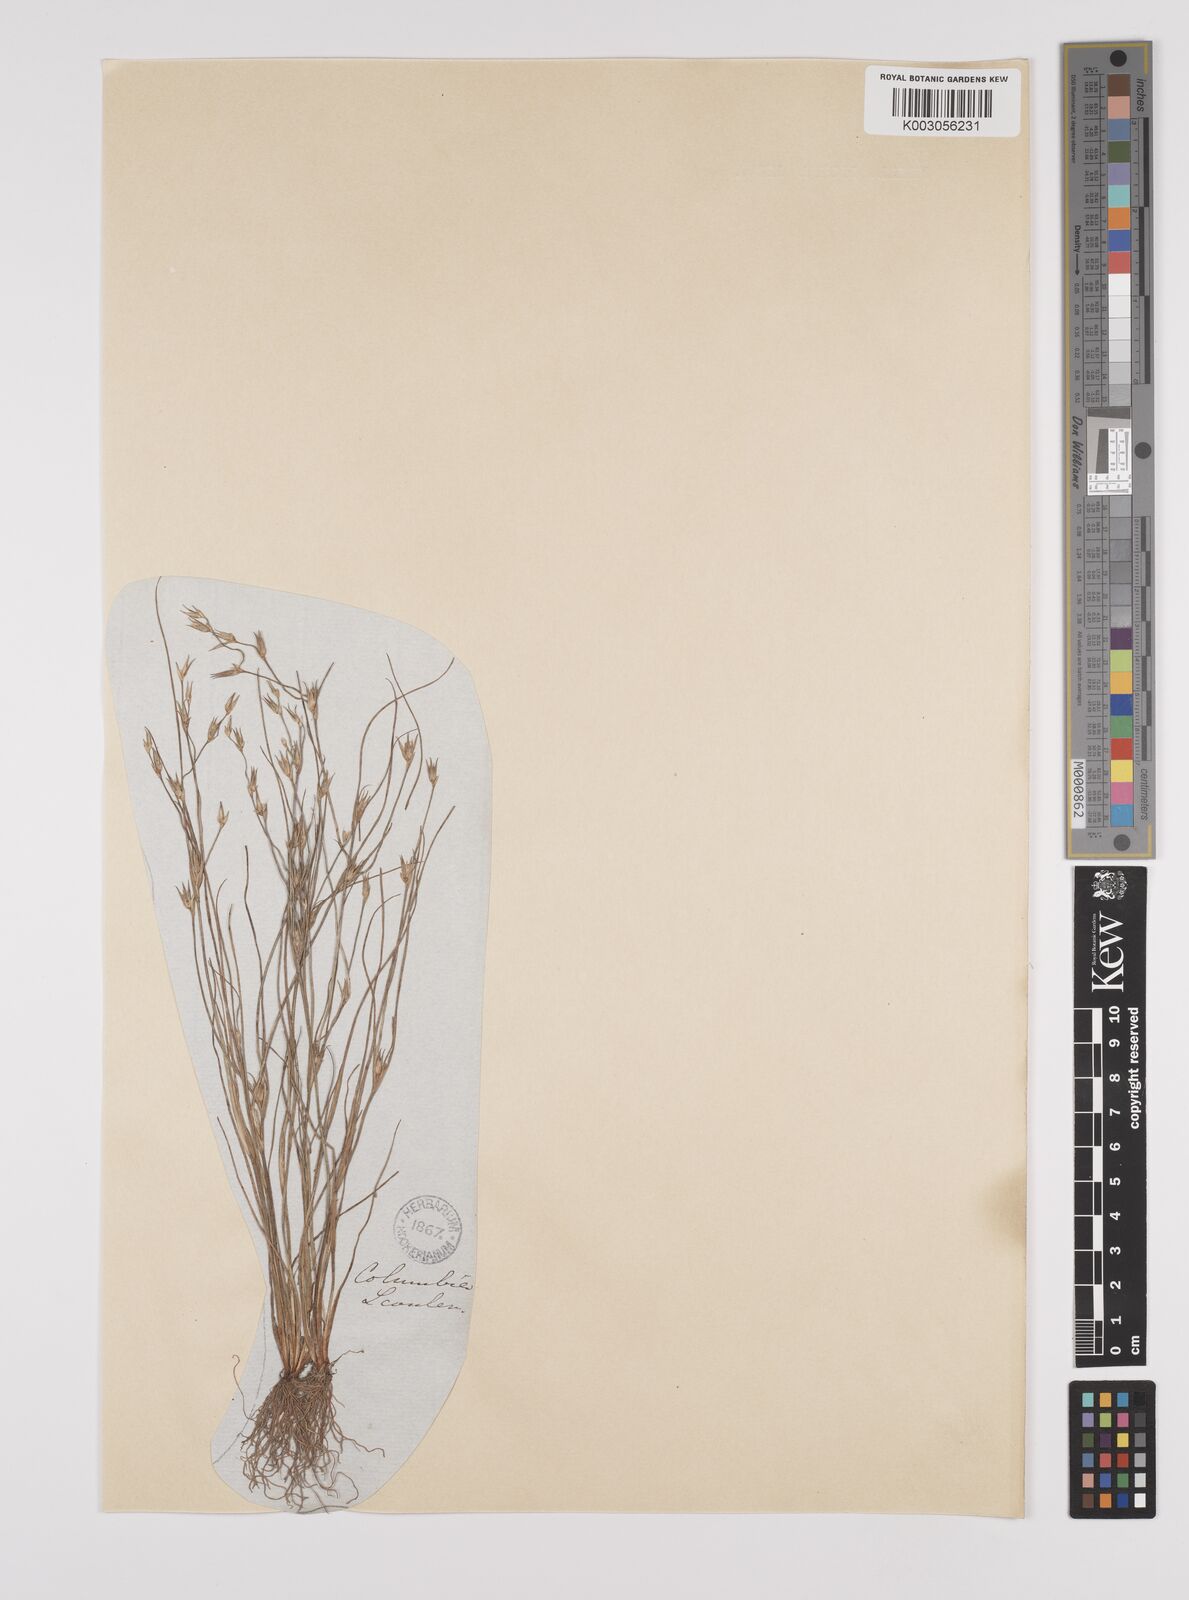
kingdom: Plantae
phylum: Tracheophyta
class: Liliopsida
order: Poales
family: Juncaceae
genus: Juncus
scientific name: Juncus bufonius
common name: Toad rush
